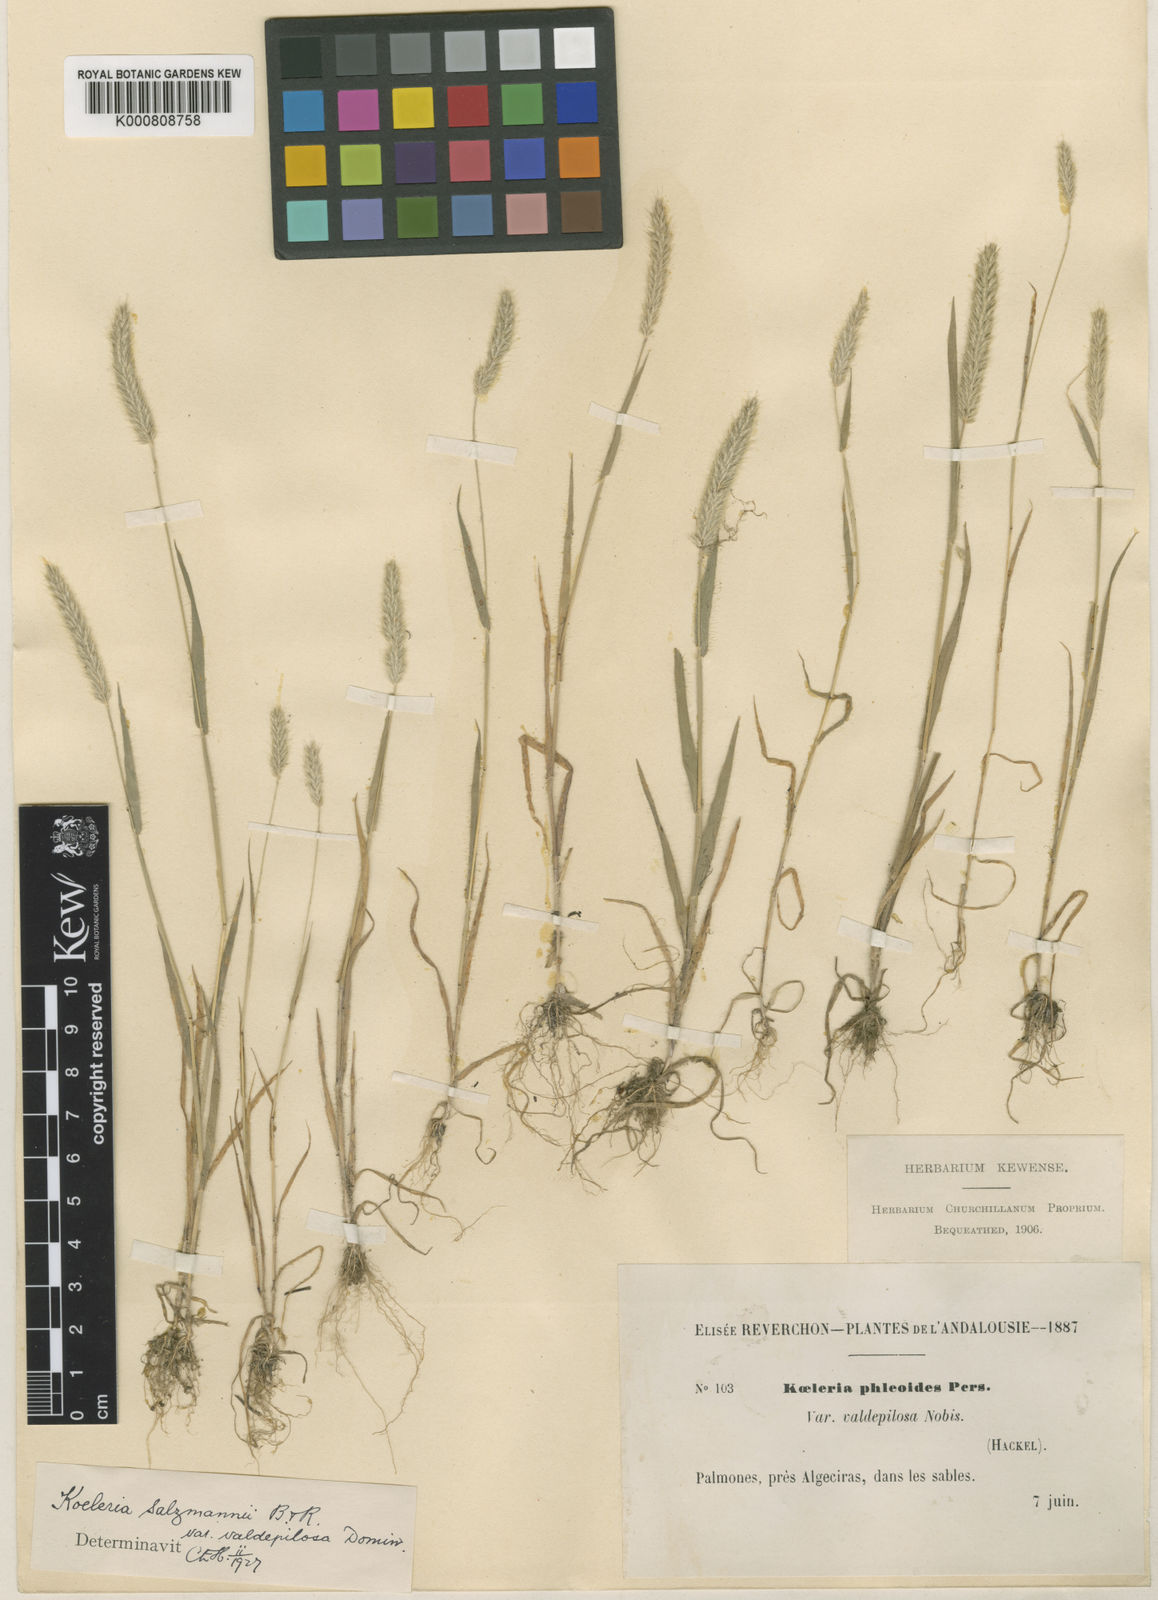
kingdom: Plantae
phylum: Tracheophyta
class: Liliopsida
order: Poales
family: Poaceae
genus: Rostraria
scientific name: Rostraria salzmannii
